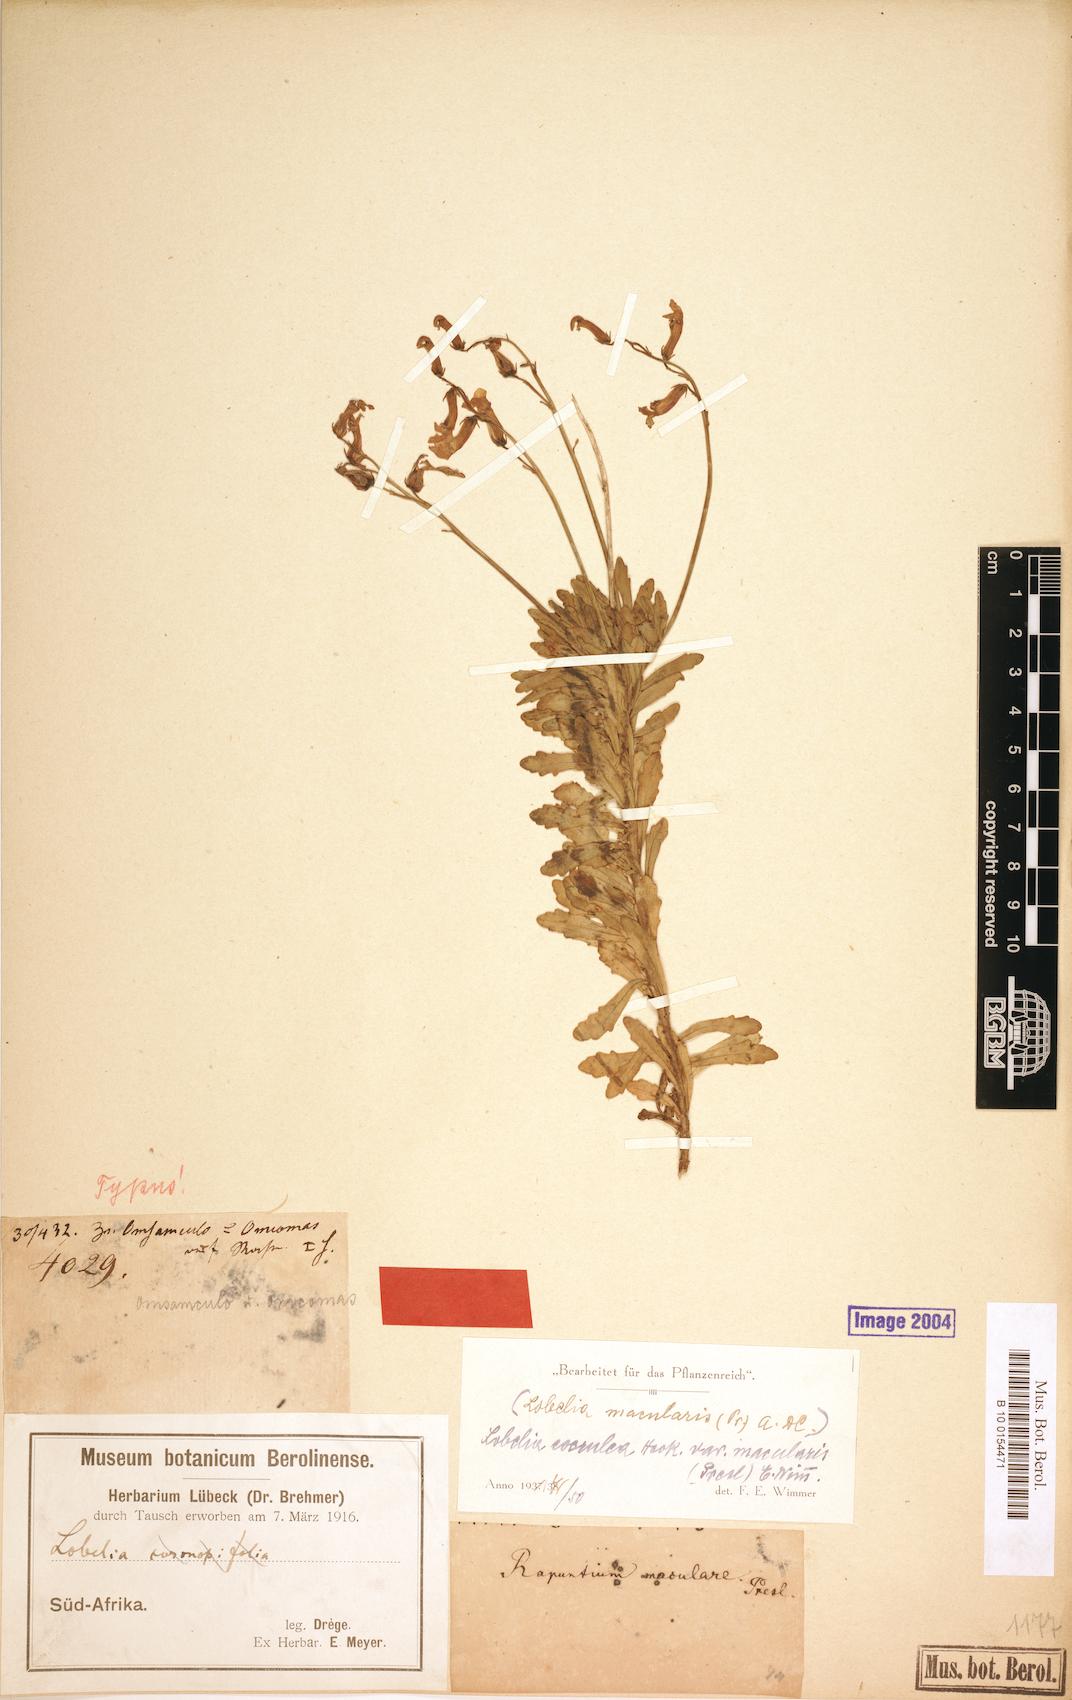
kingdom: Plantae
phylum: Tracheophyta
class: Magnoliopsida
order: Asterales
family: Campanulaceae
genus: Lobelia
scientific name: Lobelia caerulea
